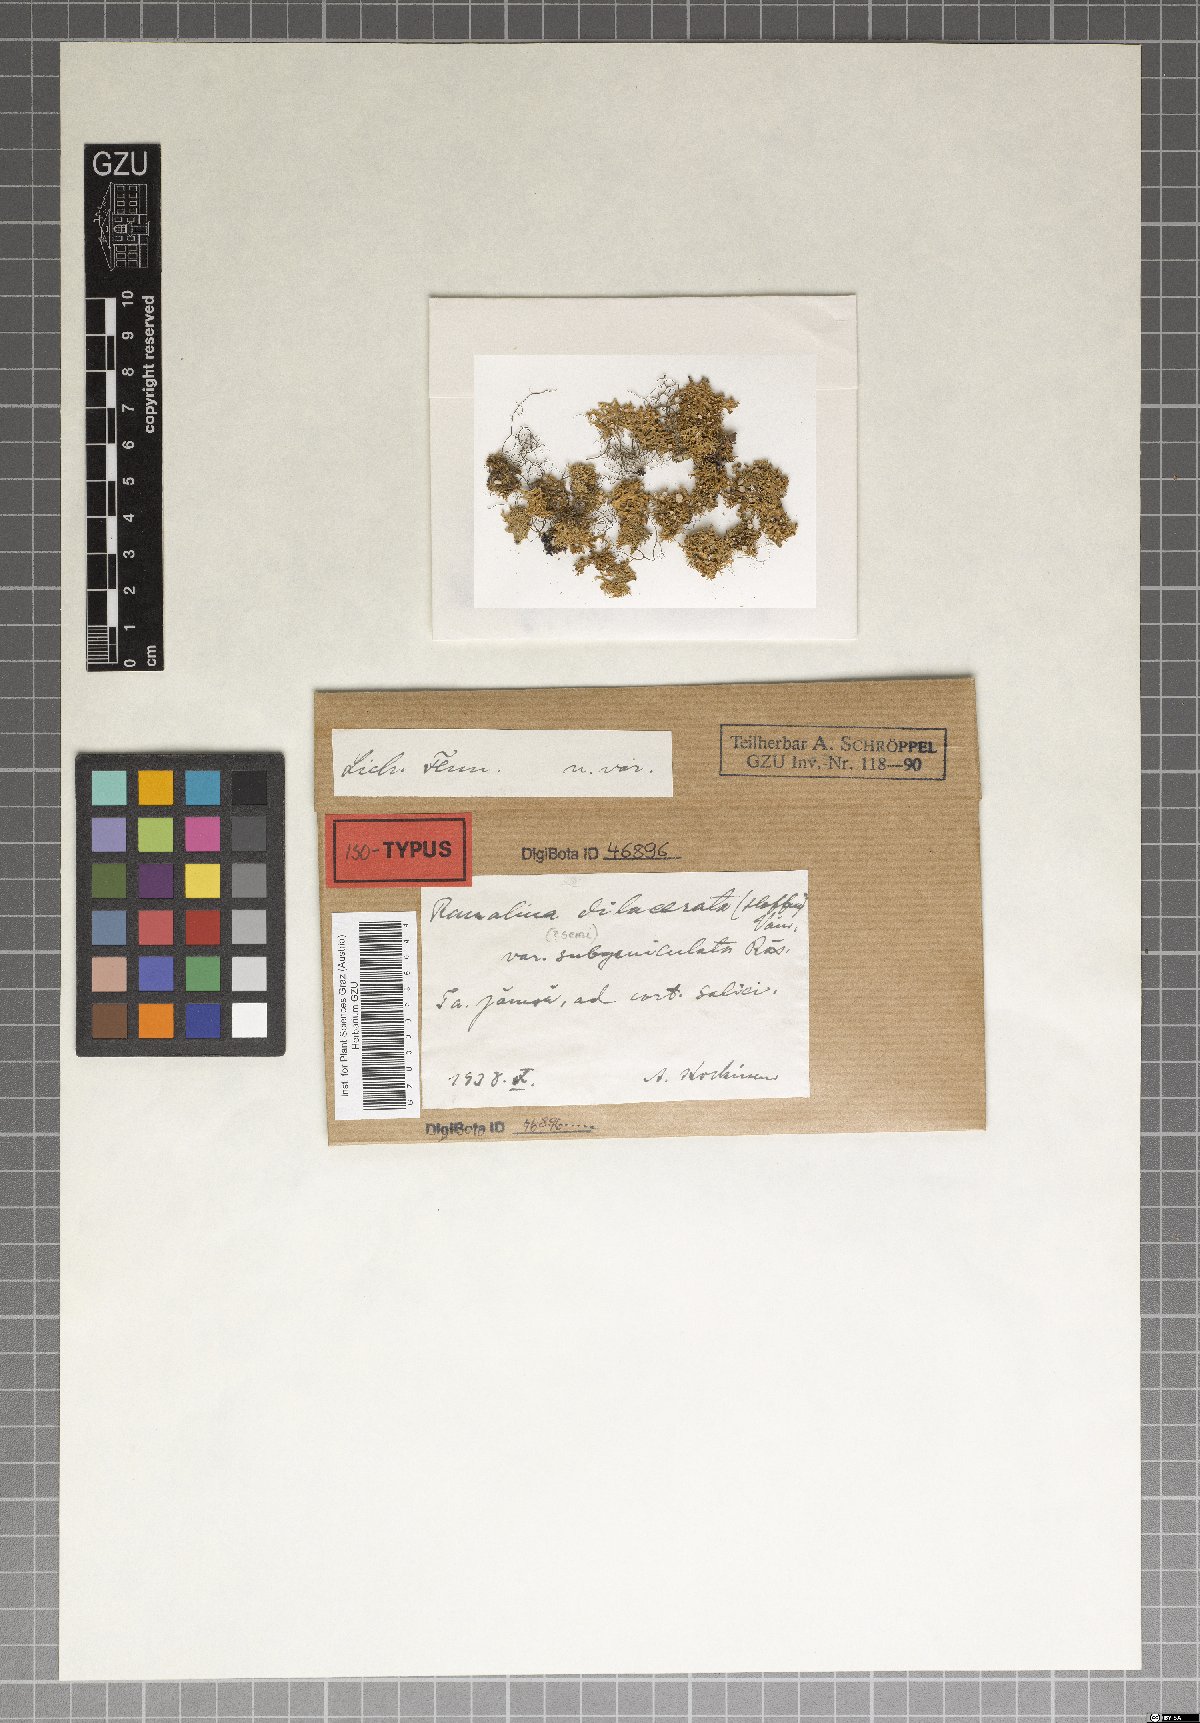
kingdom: Fungi
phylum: Ascomycota
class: Lecanoromycetes
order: Lecanorales
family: Ramalinaceae
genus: Ramalina
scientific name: Ramalina dilacerata
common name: Punctured bushy lichen
